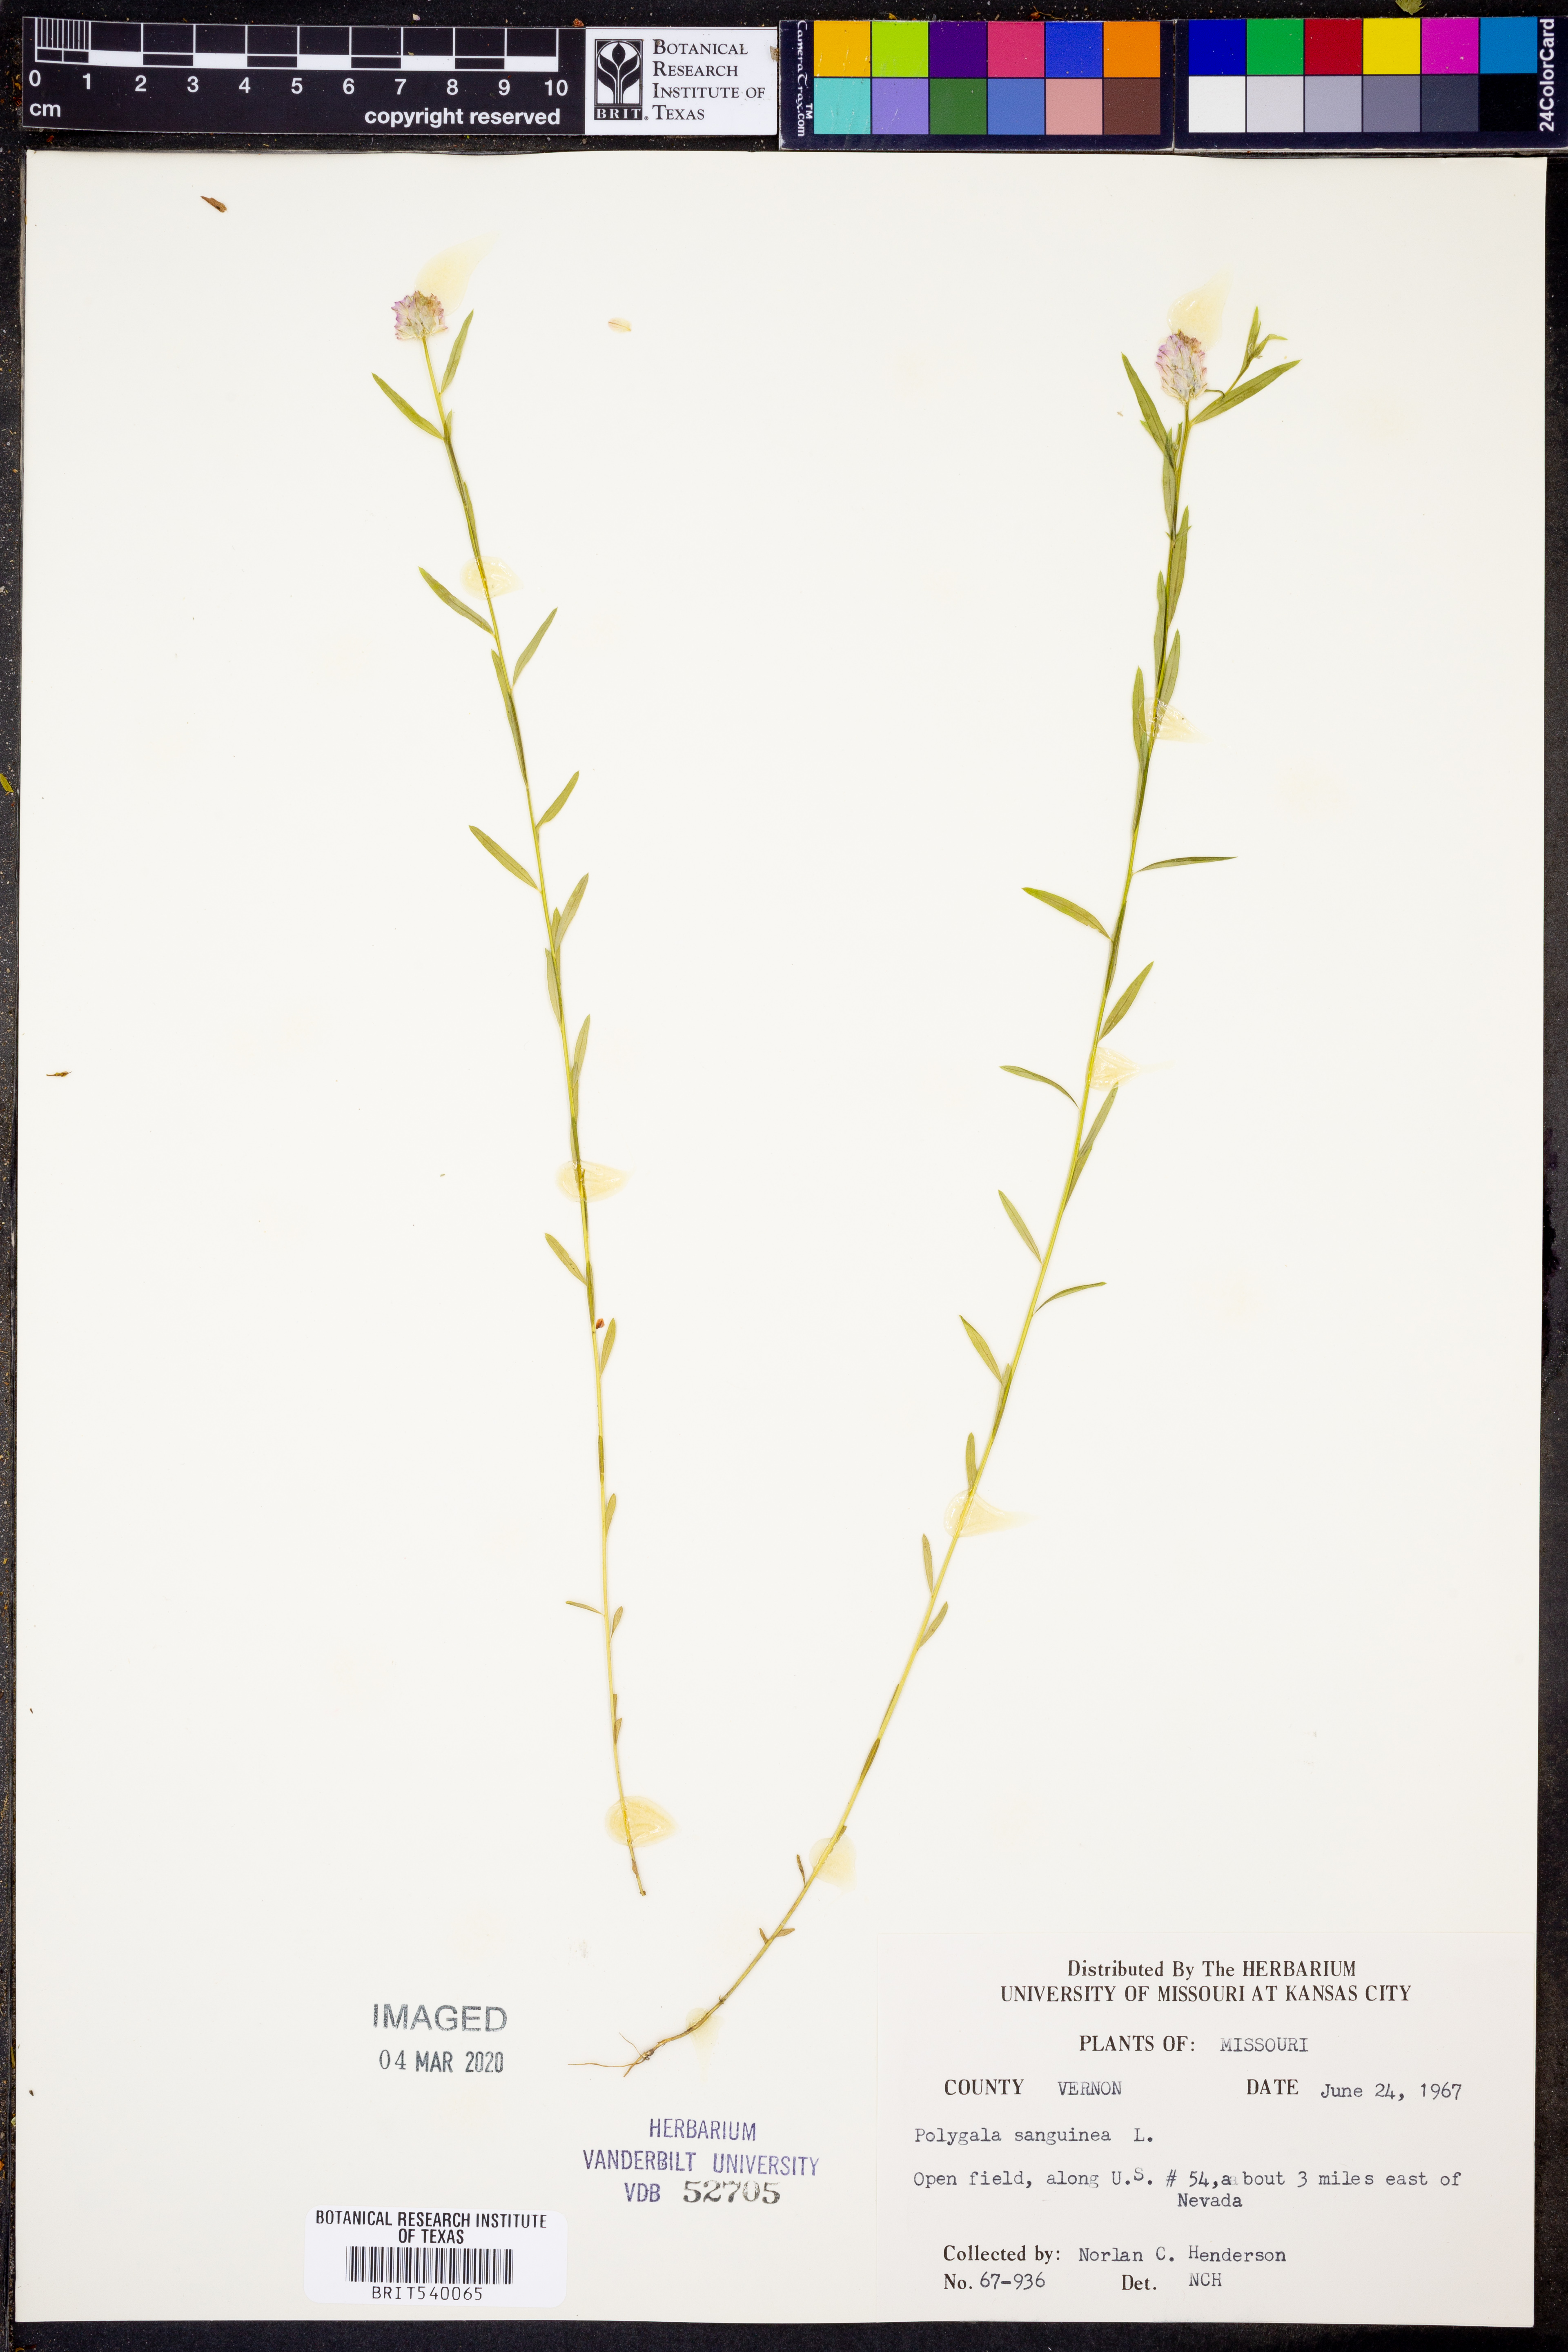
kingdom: Plantae
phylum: Tracheophyta
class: Magnoliopsida
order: Fabales
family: Polygalaceae
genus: Polygala
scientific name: Polygala sanguinea
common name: Blood milkwort
